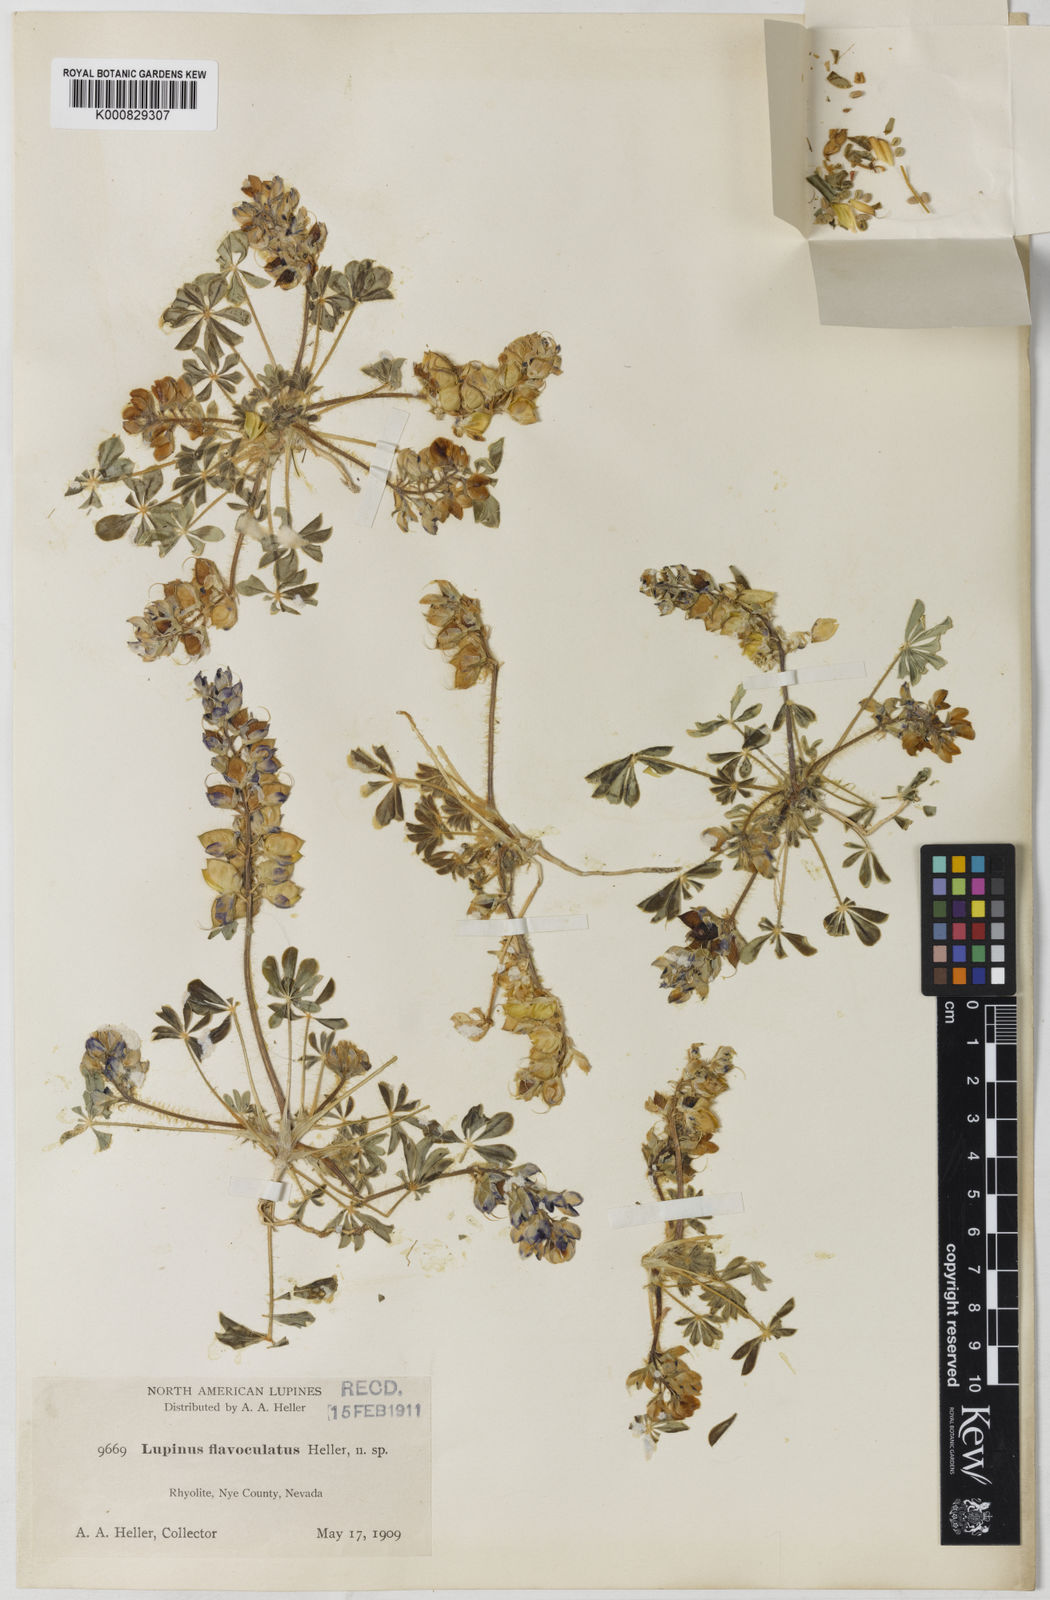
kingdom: Plantae
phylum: Tracheophyta
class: Magnoliopsida
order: Fabales
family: Fabaceae
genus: Lupinus
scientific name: Lupinus flavoculatus
